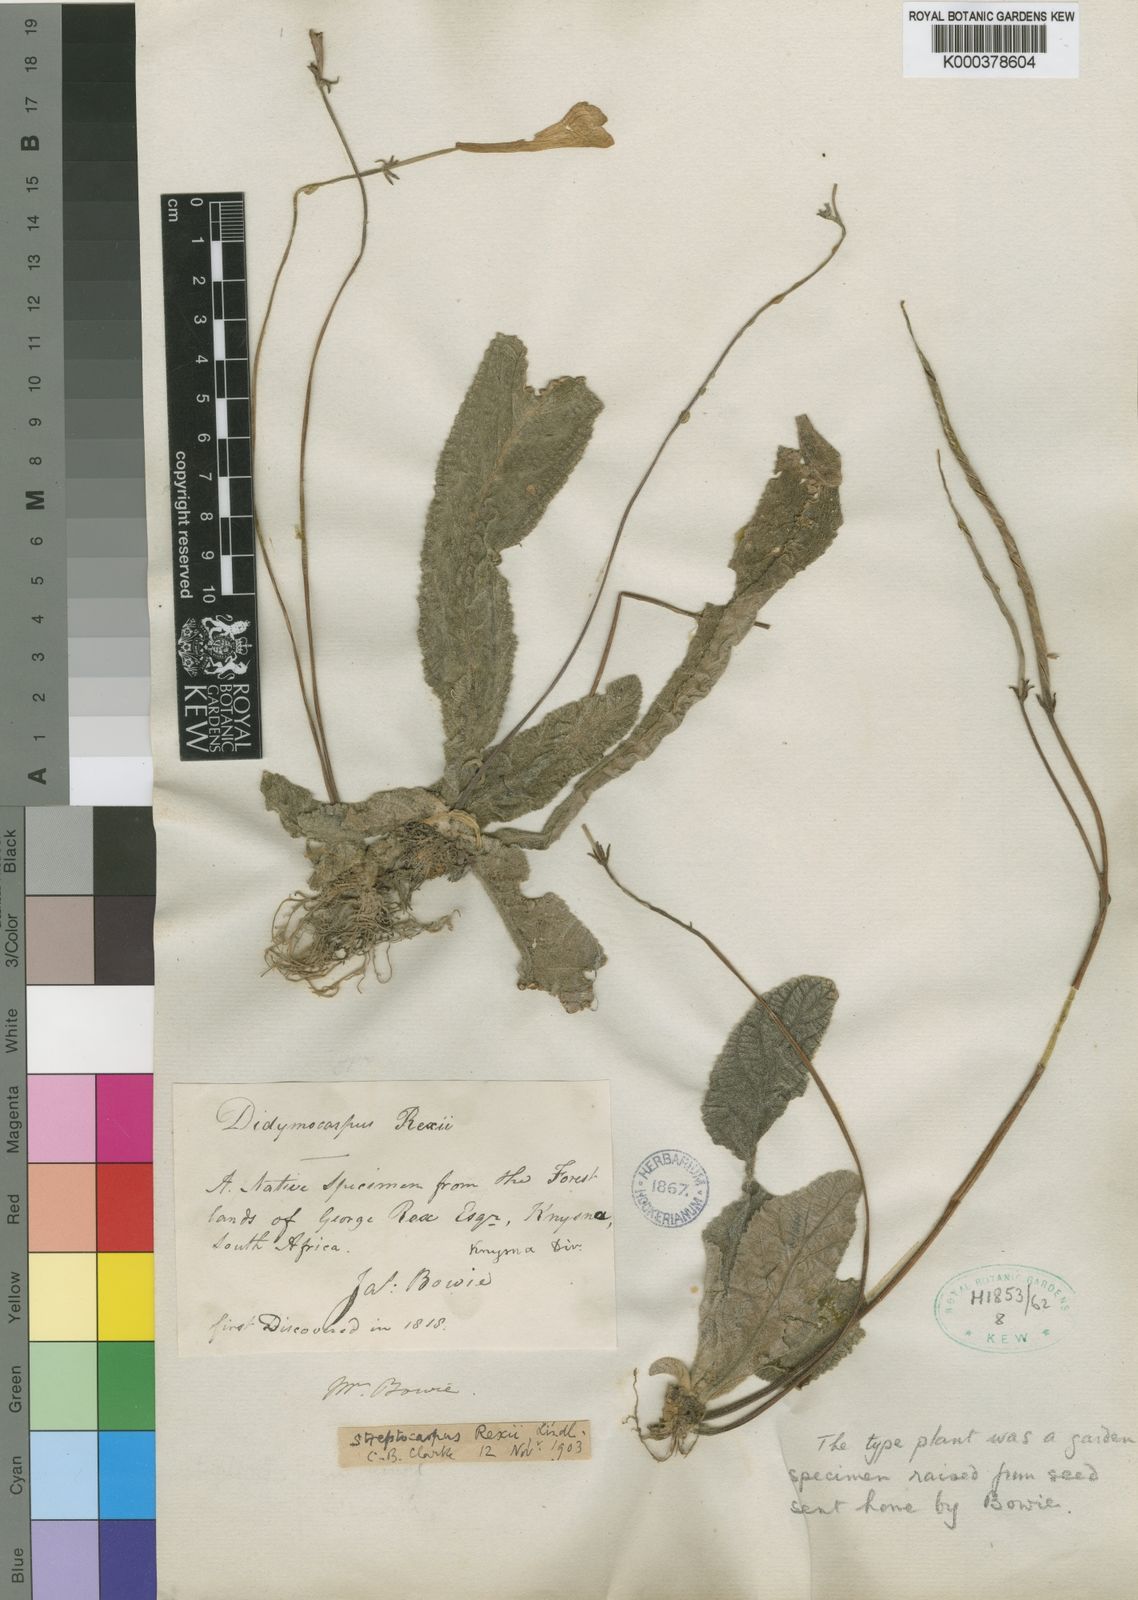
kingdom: Plantae
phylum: Tracheophyta
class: Magnoliopsida
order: Lamiales
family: Gesneriaceae
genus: Streptocarpus
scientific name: Streptocarpus rexii
